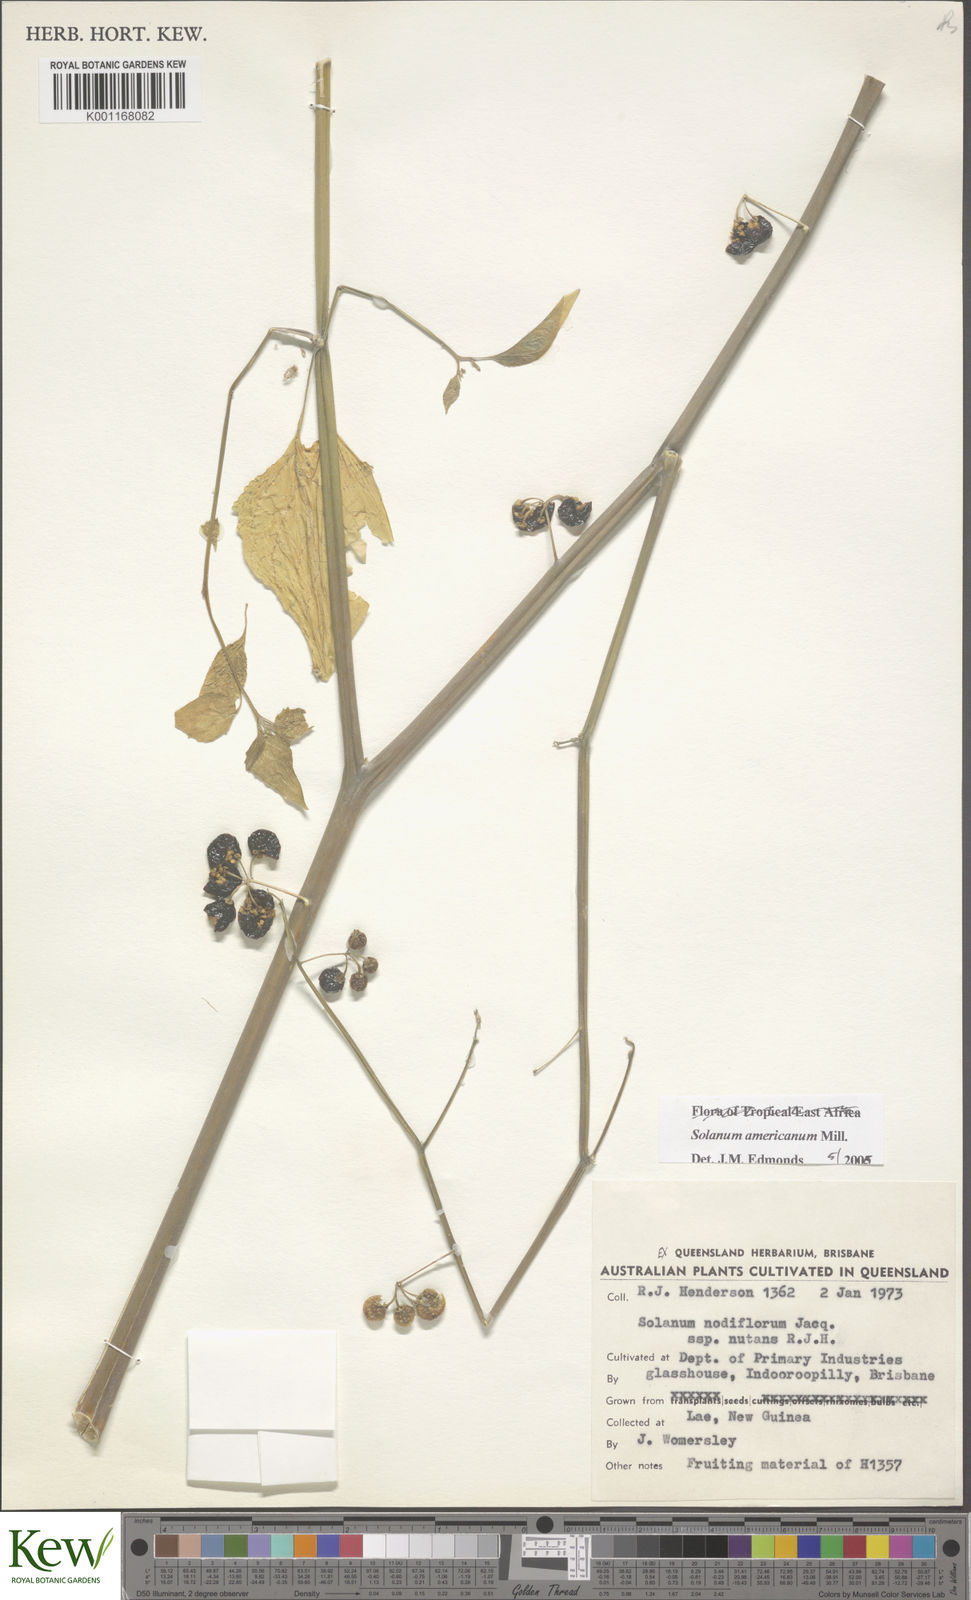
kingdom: Plantae
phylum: Tracheophyta
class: Magnoliopsida
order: Solanales
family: Solanaceae
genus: Solanum
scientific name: Solanum americanum
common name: American black nightshade
